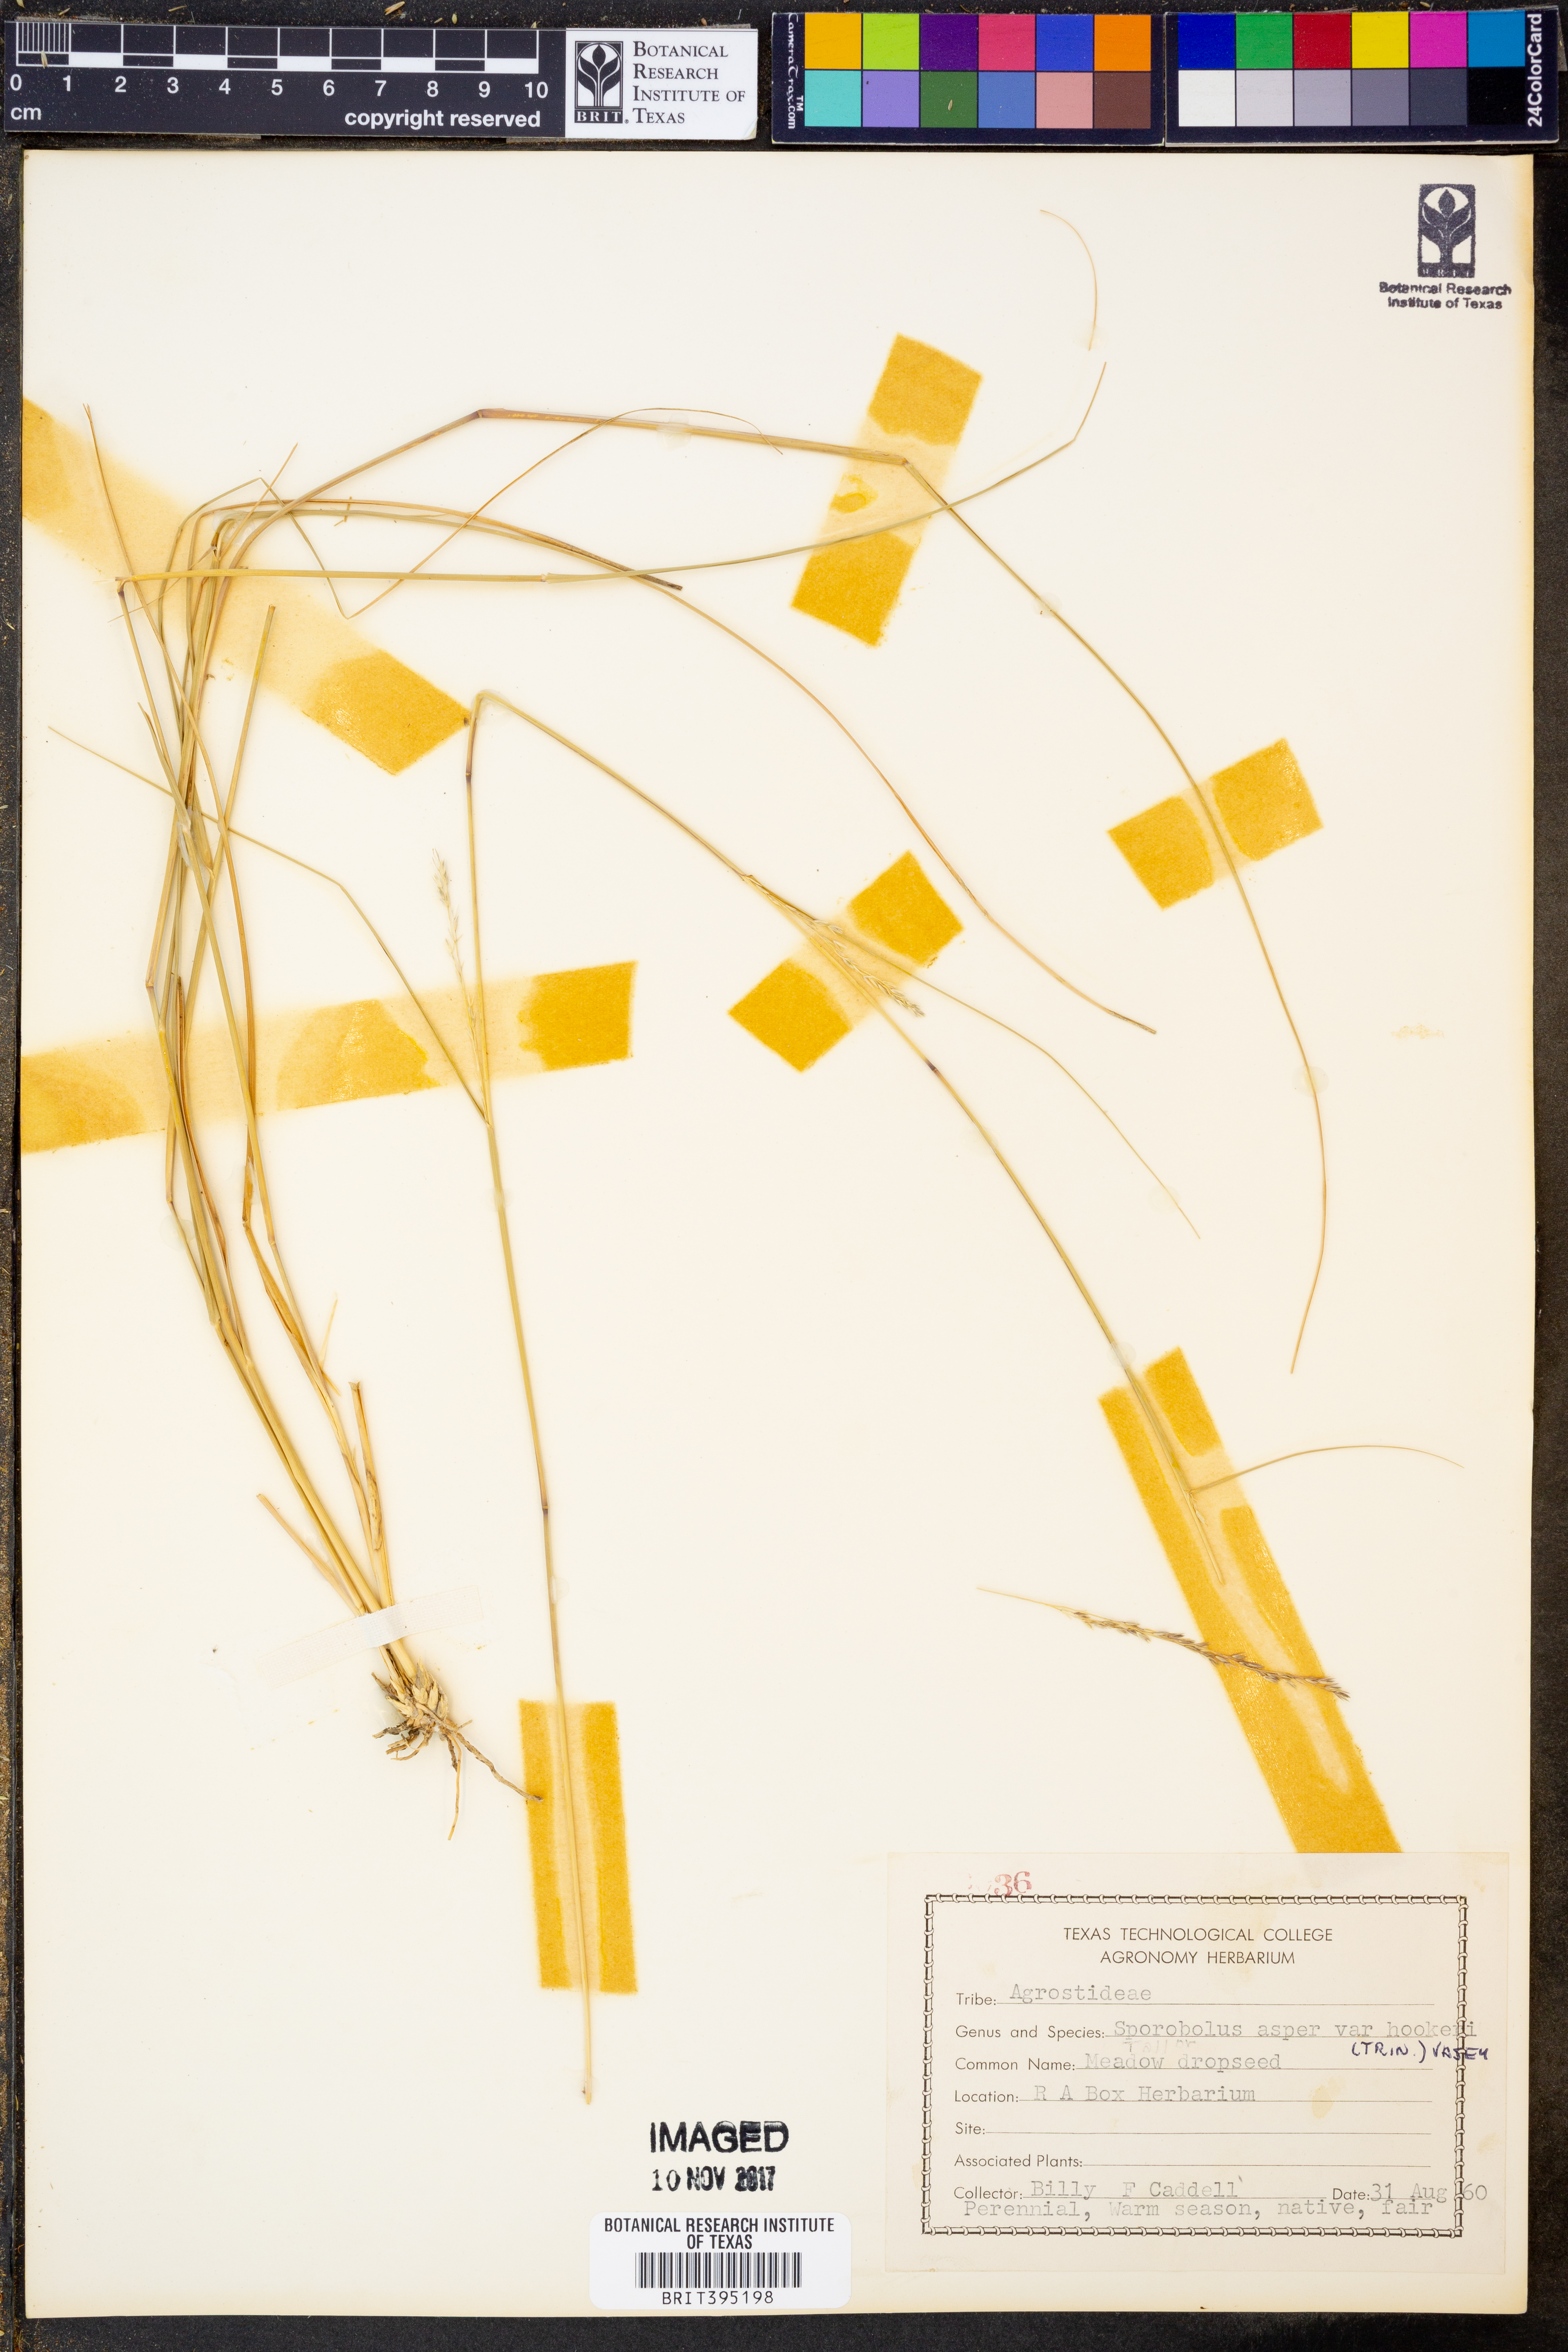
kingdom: Plantae
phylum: Tracheophyta
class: Liliopsida
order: Poales
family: Poaceae
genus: Sporobolus
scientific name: Sporobolus compositus
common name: Rough dropseed
